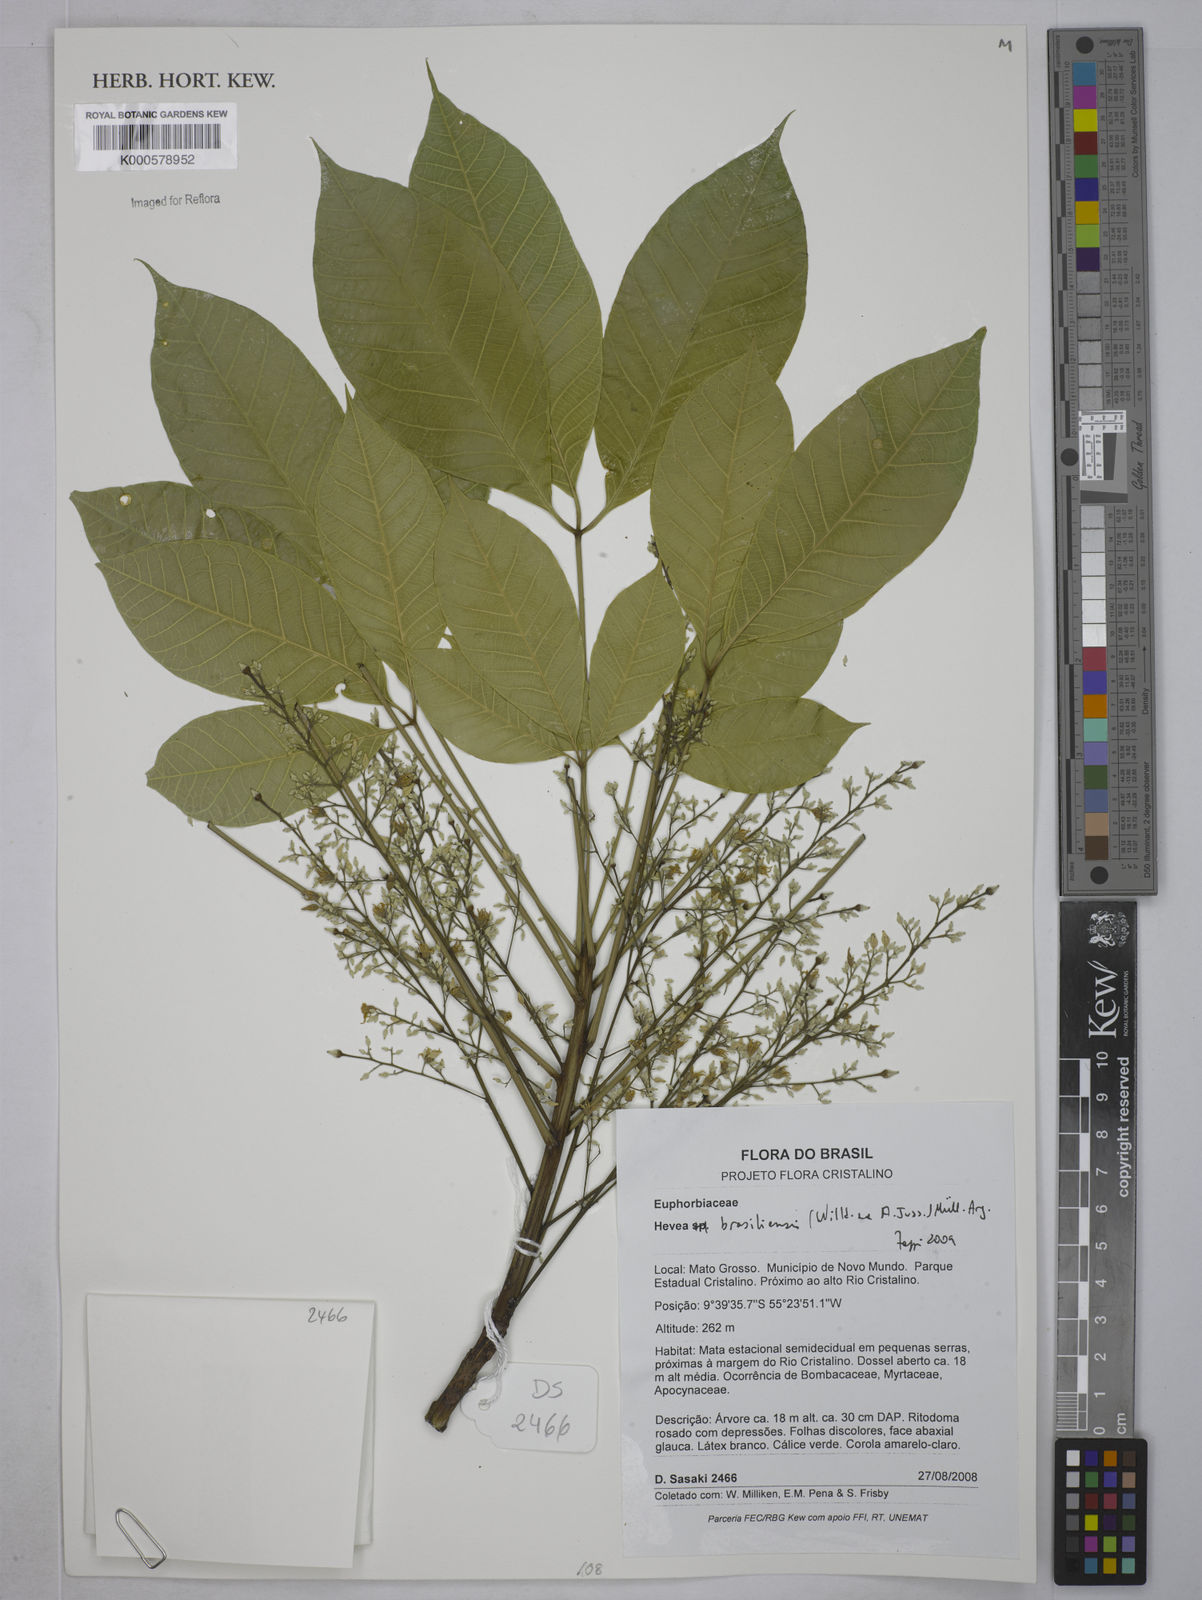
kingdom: Plantae
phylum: Tracheophyta
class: Magnoliopsida
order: Malpighiales
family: Euphorbiaceae
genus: Hevea
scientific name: Hevea
